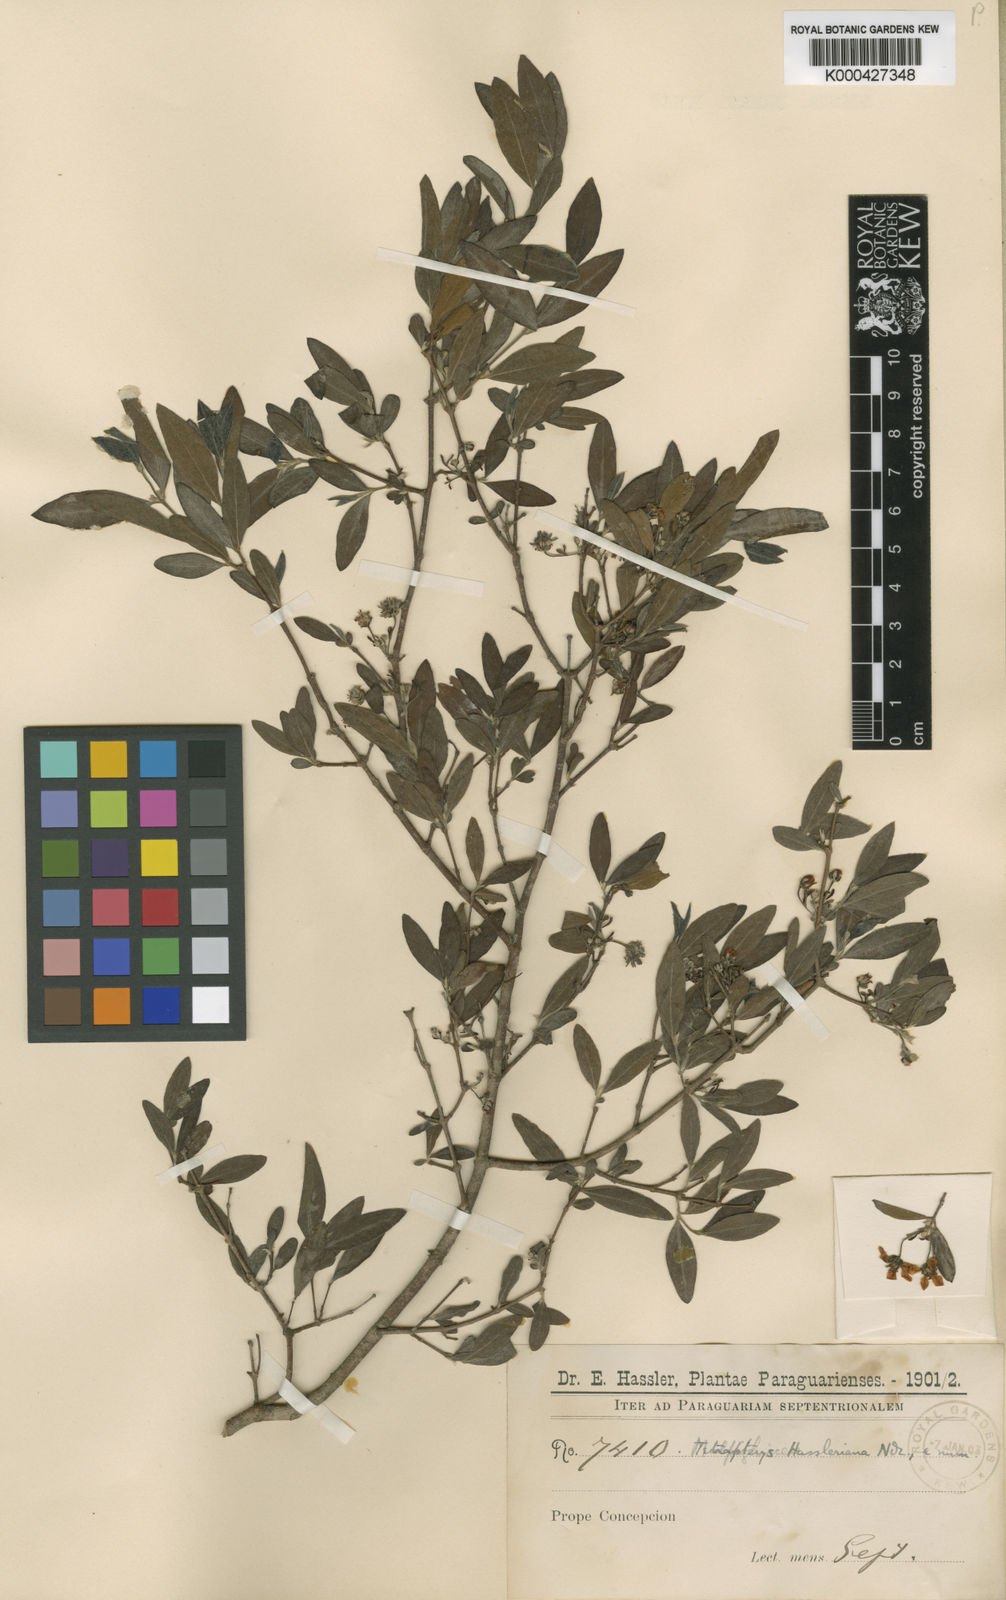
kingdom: Plantae
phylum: Tracheophyta
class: Magnoliopsida
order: Malpighiales
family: Malpighiaceae
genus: Glicophyllum
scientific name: Glicophyllum hasslerianum
